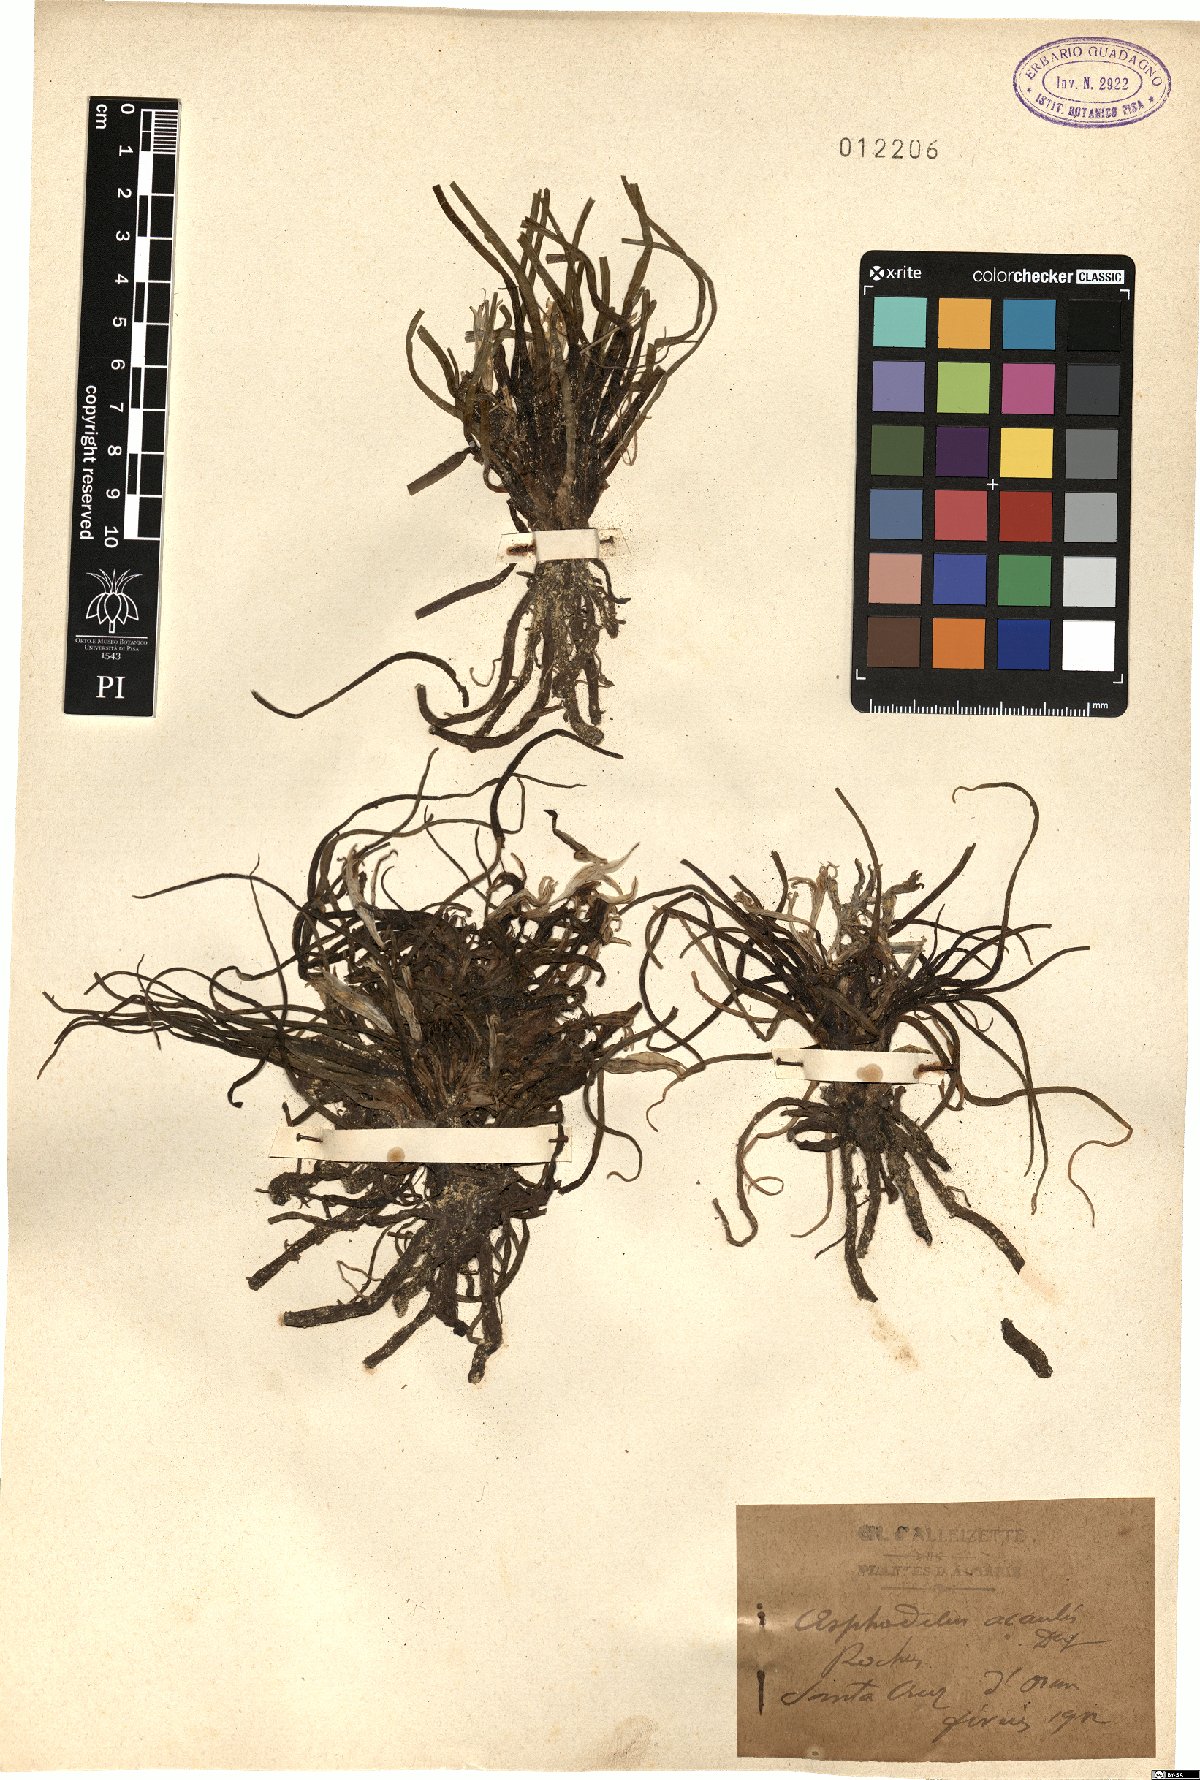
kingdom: Plantae
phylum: Tracheophyta
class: Liliopsida
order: Asparagales
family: Asphodelaceae
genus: Asphodelus
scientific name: Asphodelus acaulis
